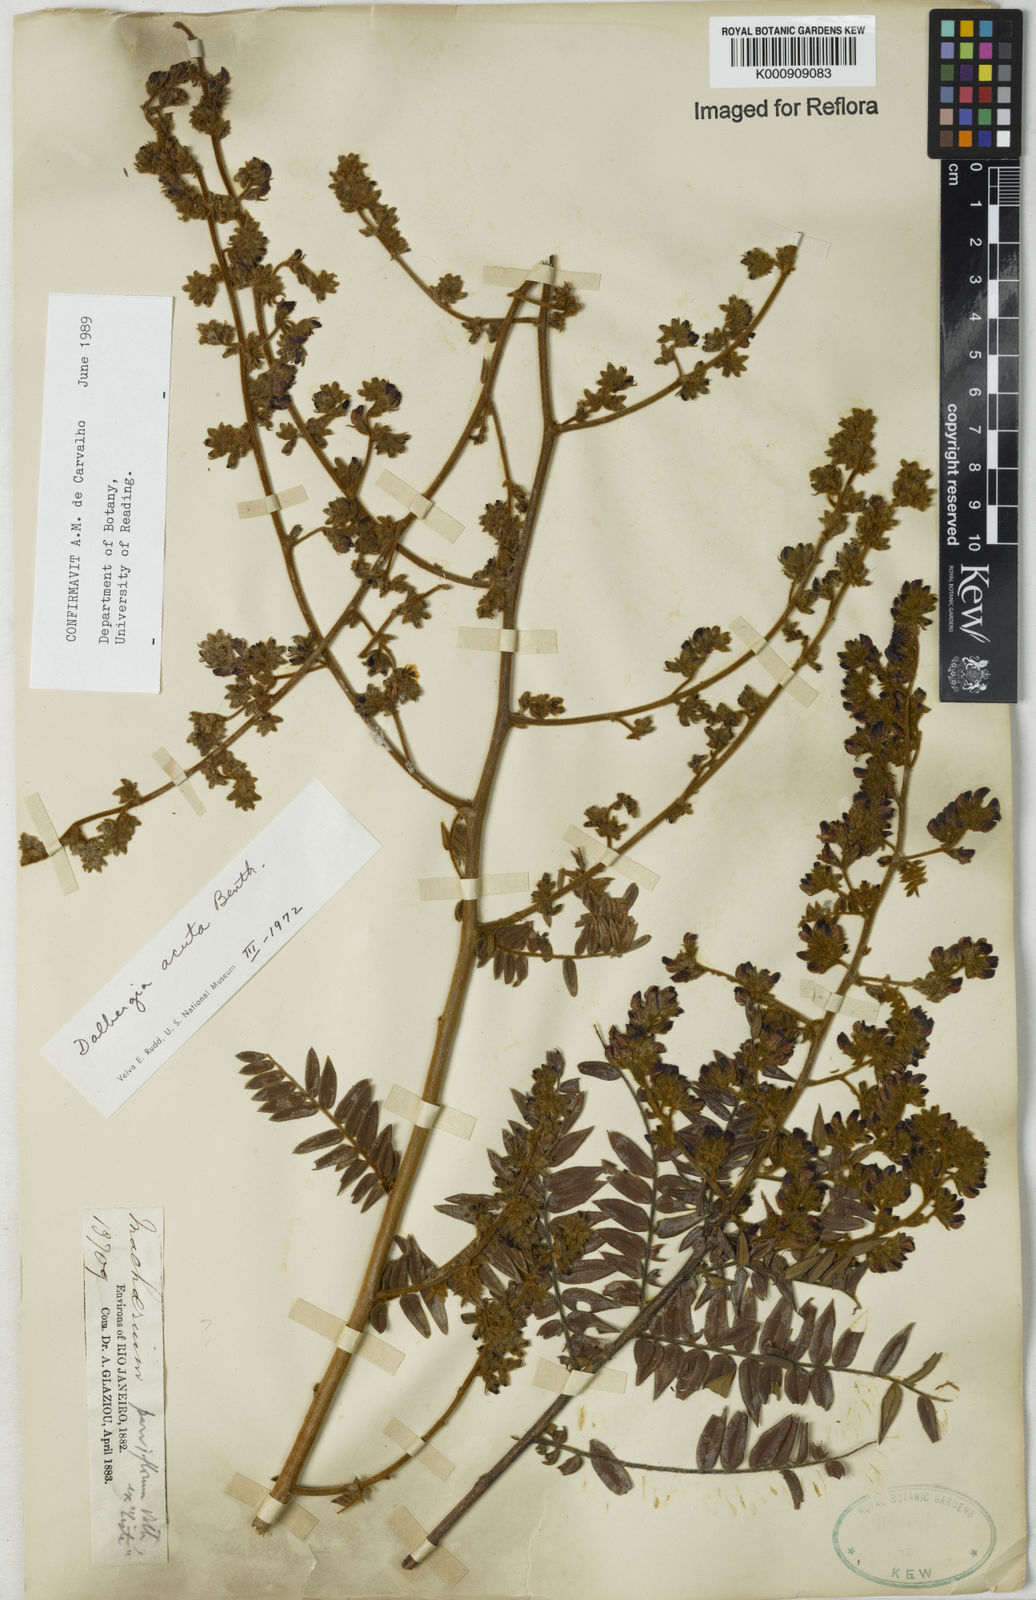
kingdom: Plantae
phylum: Tracheophyta
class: Magnoliopsida
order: Fabales
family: Fabaceae
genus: Dalbergia
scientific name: Dalbergia acuta
